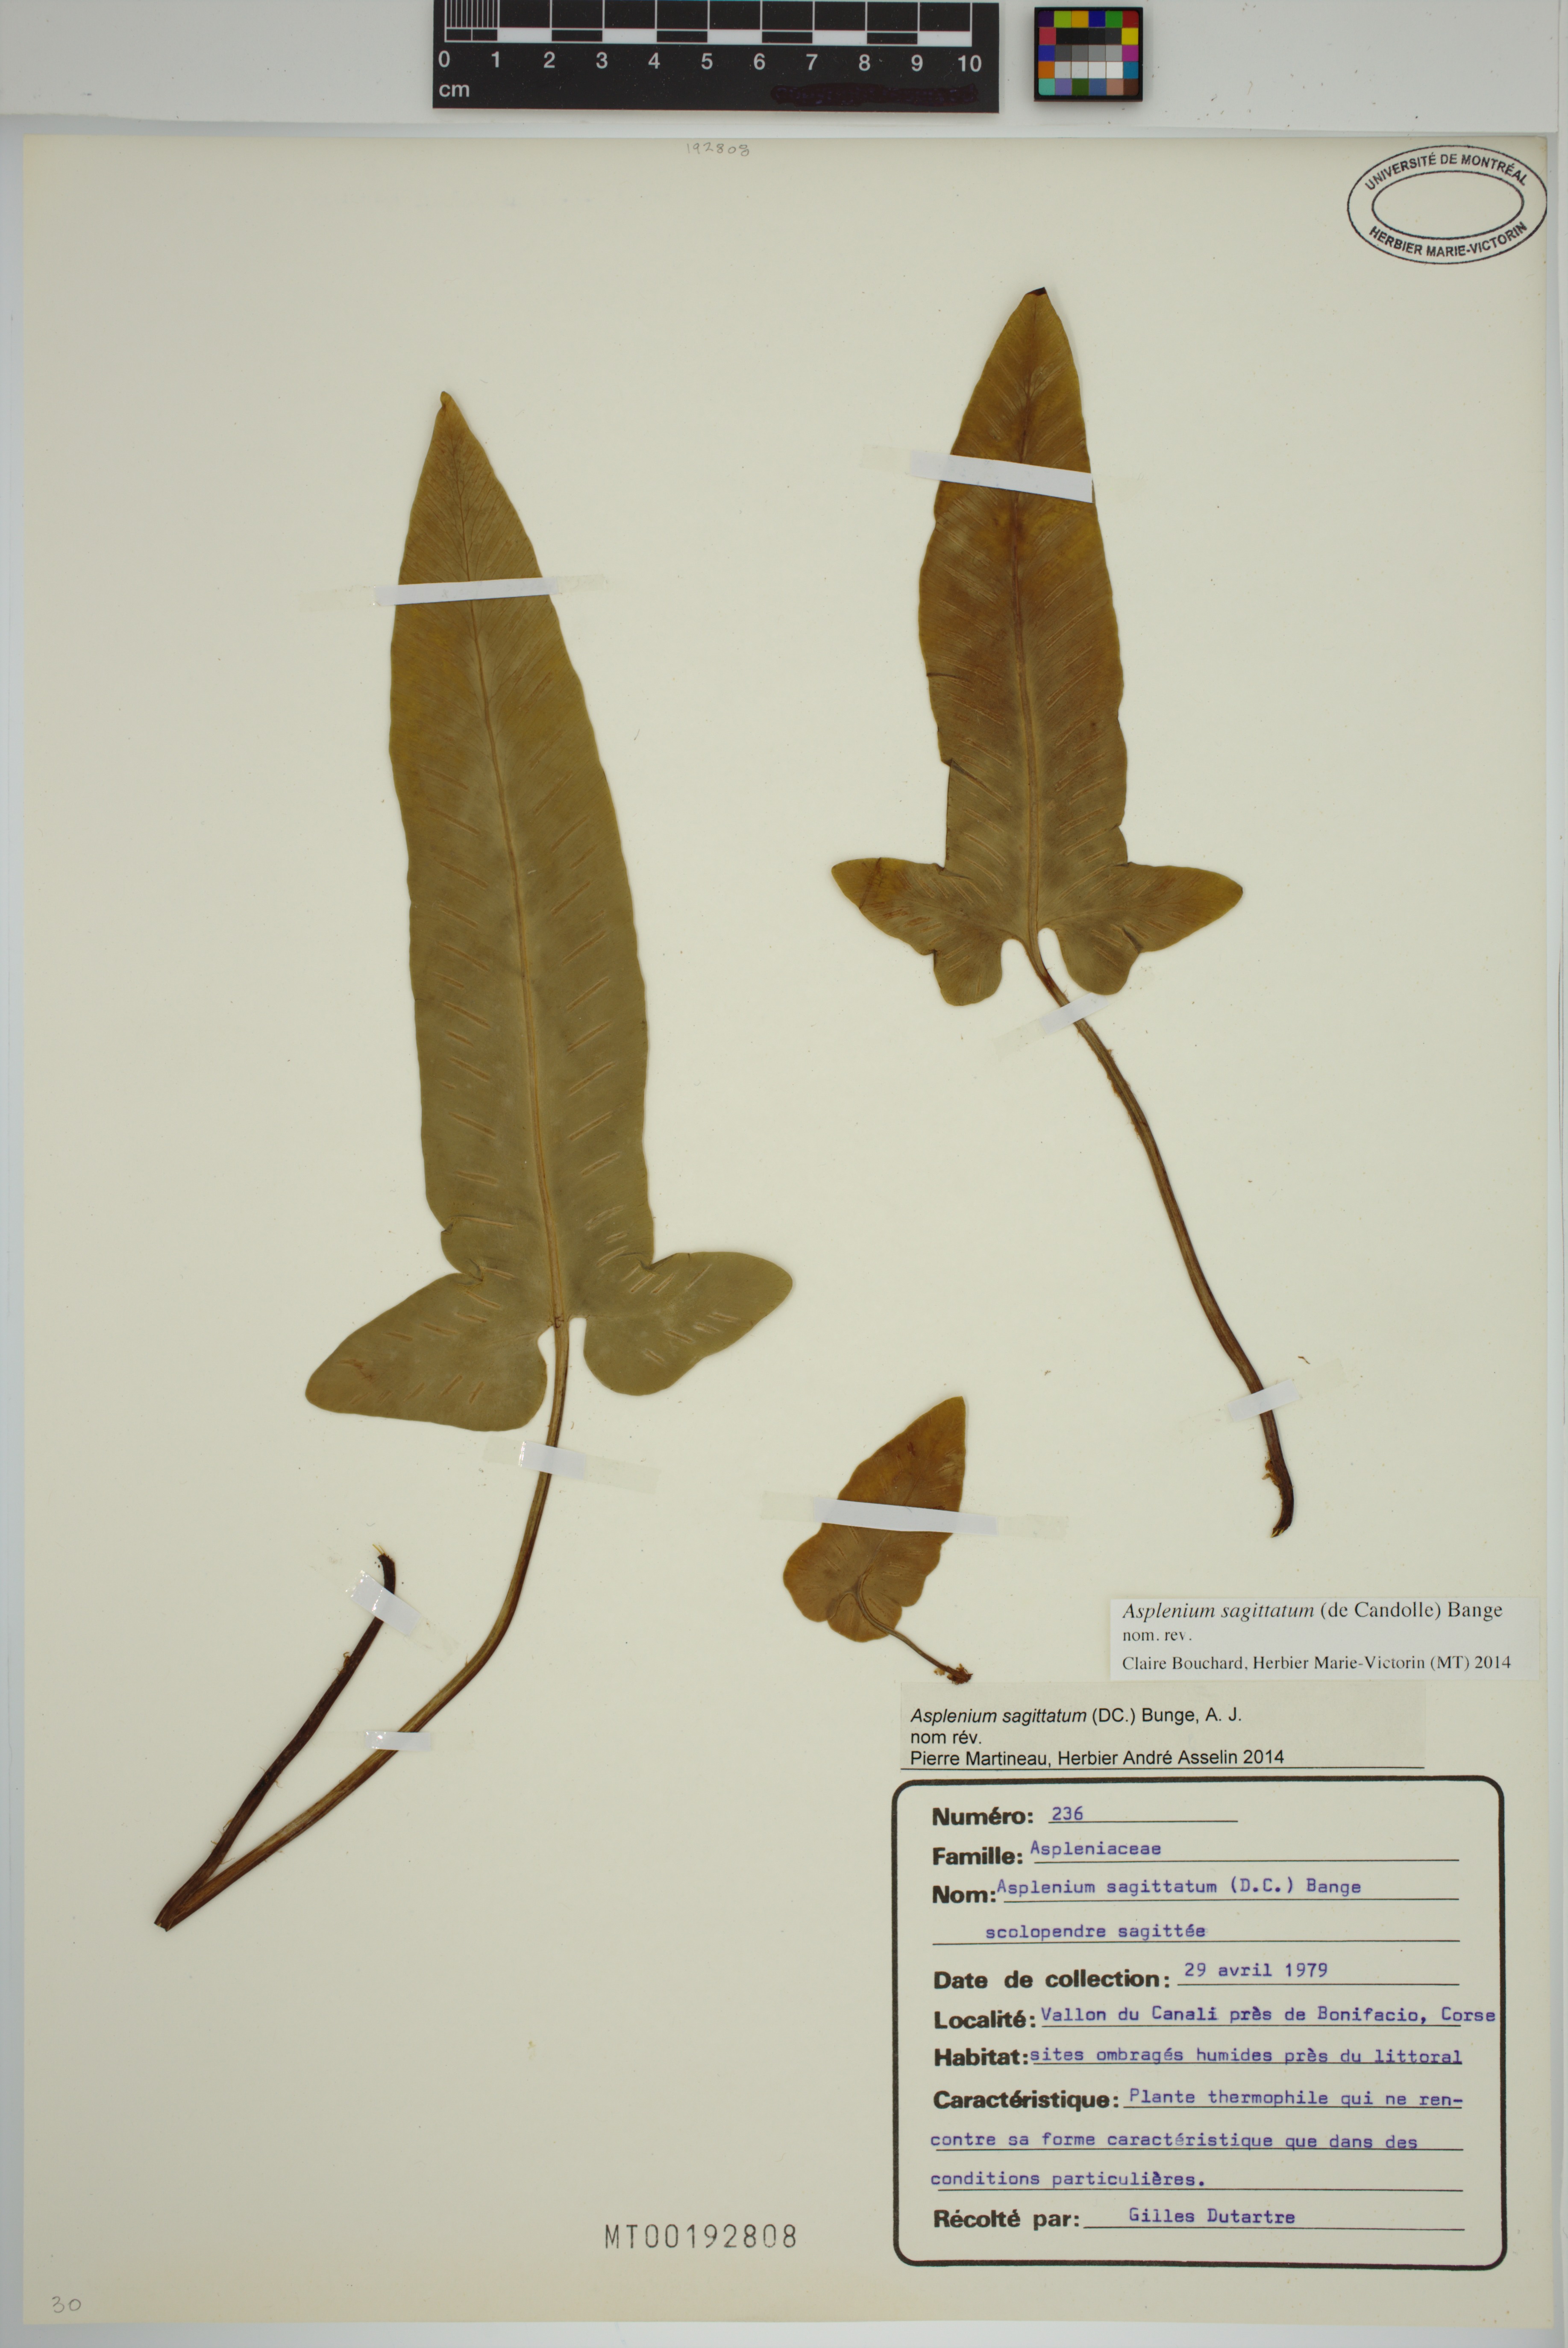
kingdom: Plantae
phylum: Tracheophyta
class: Polypodiopsida
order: Polypodiales
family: Aspleniaceae
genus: Asplenium
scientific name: Asplenium sagittatum
